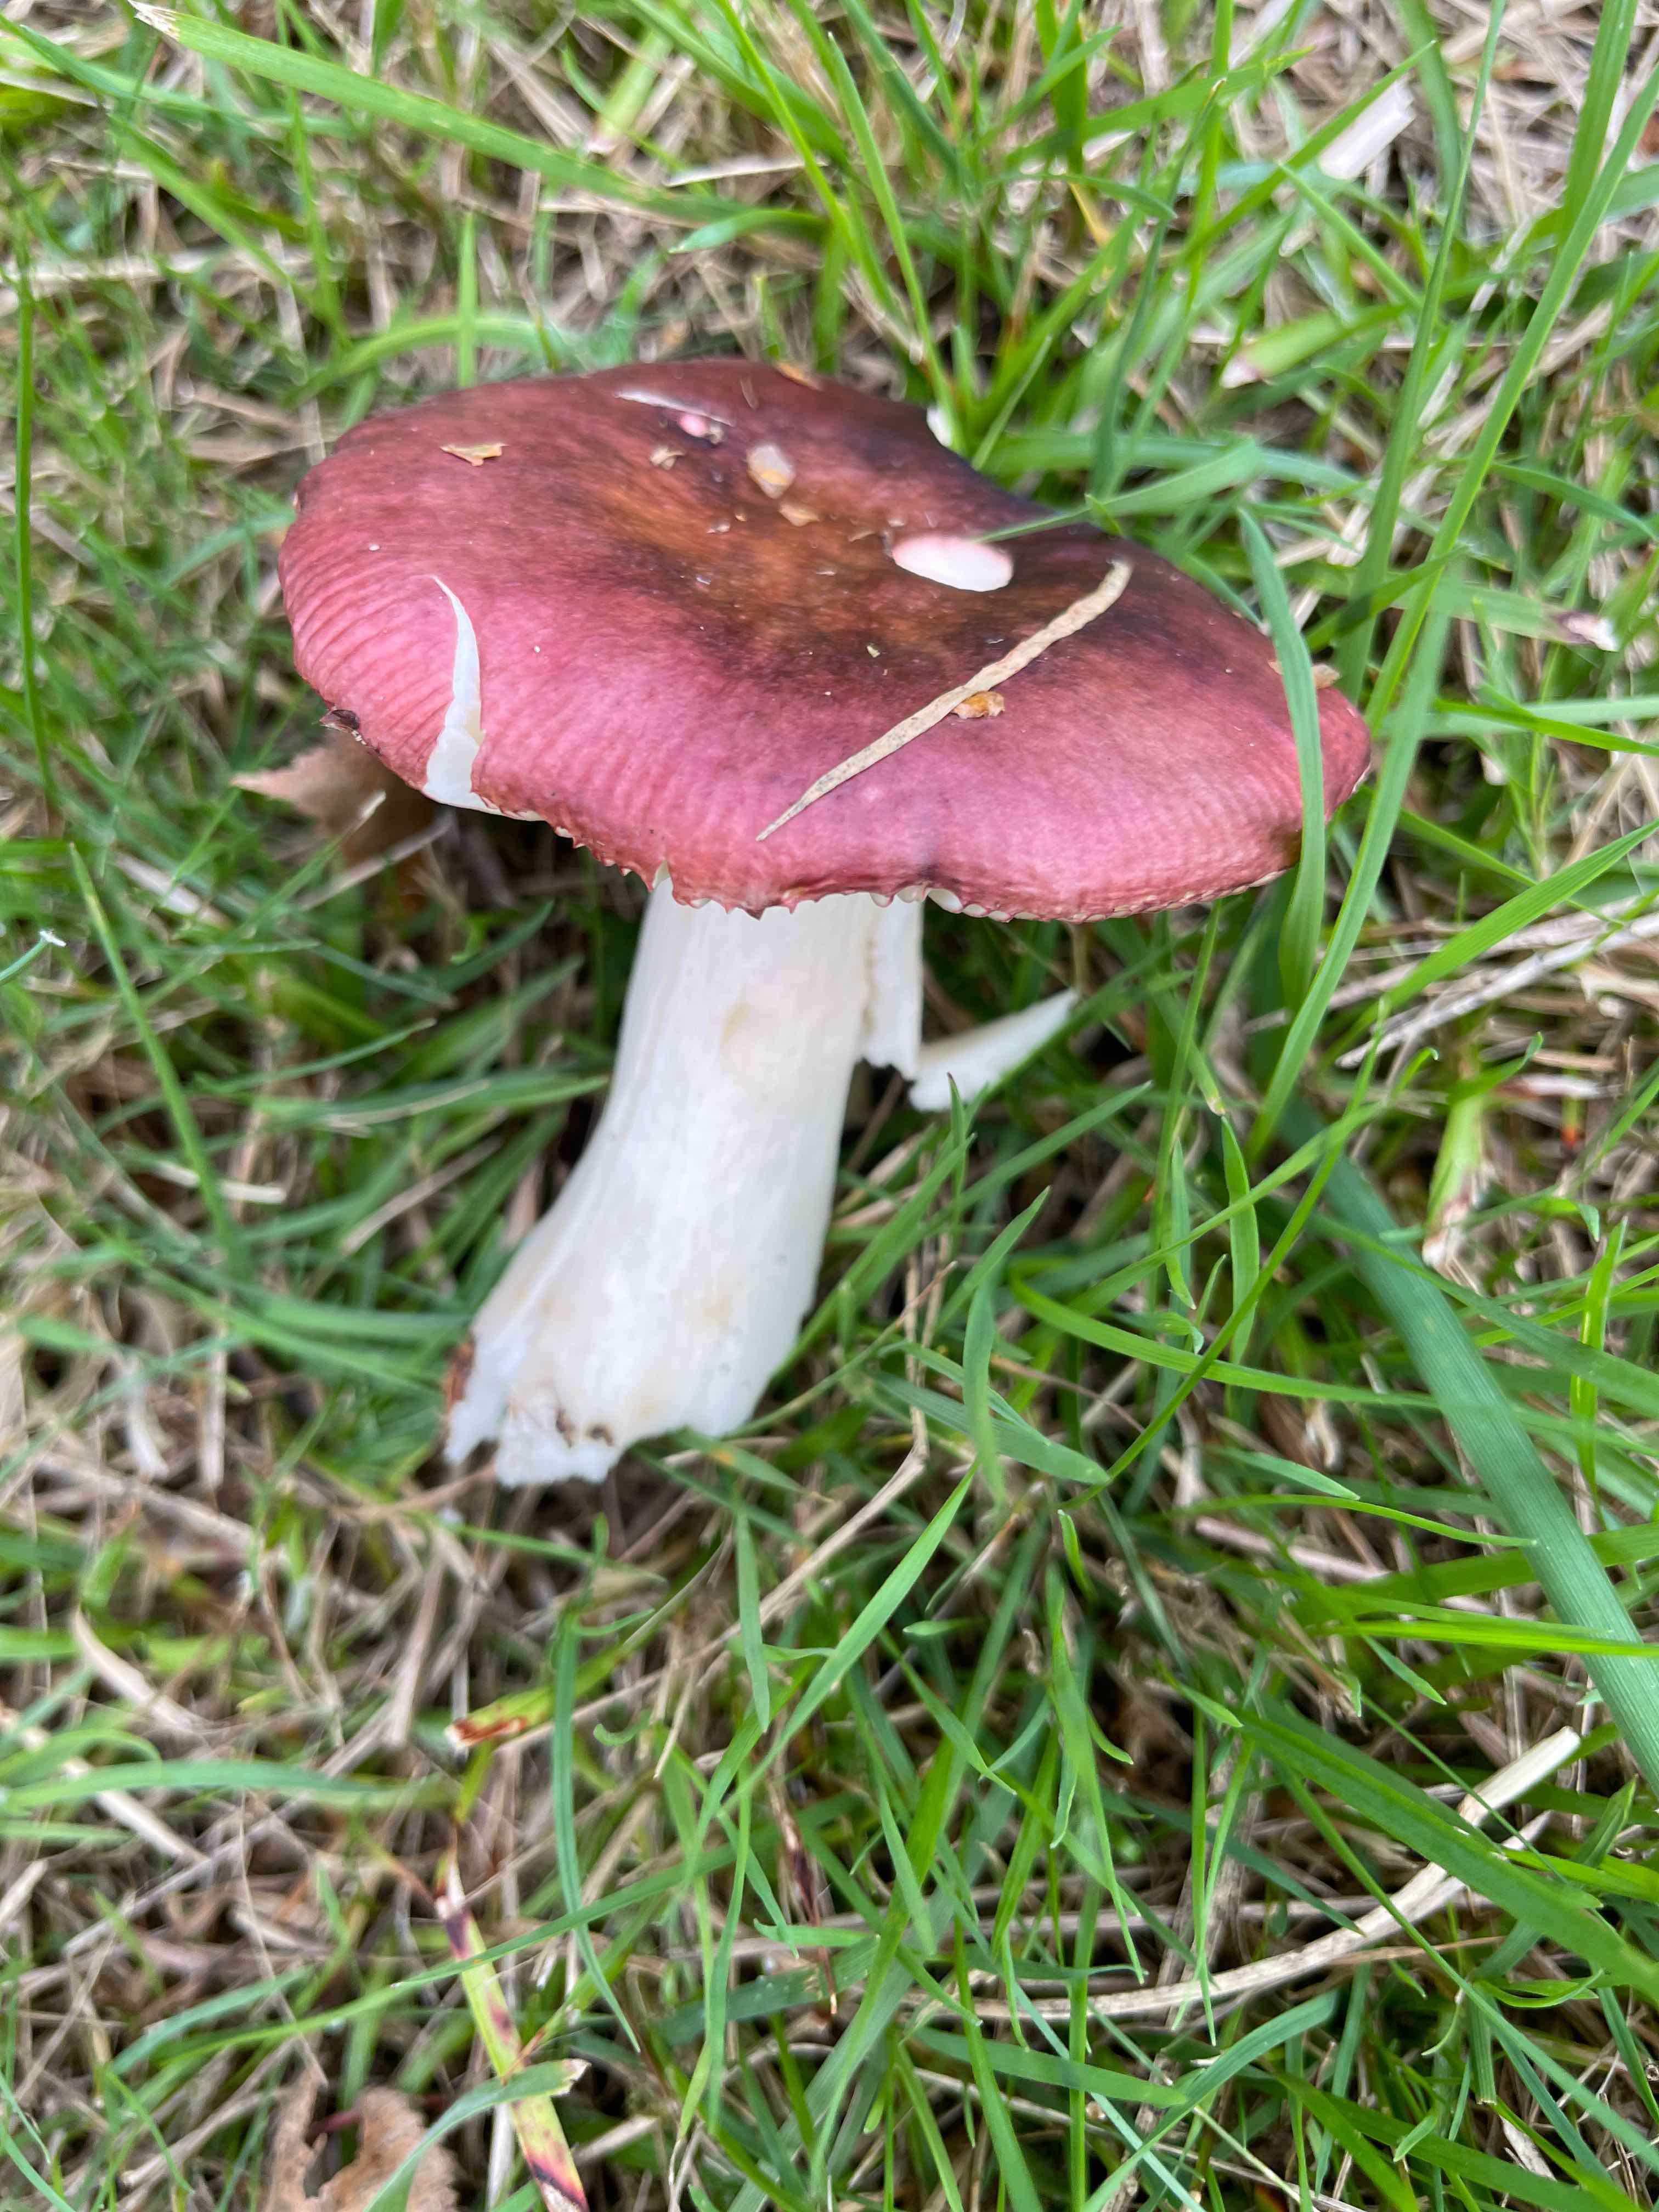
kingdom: Fungi
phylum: Basidiomycota
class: Agaricomycetes
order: Russulales
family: Russulaceae
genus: Russula
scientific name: Russula
